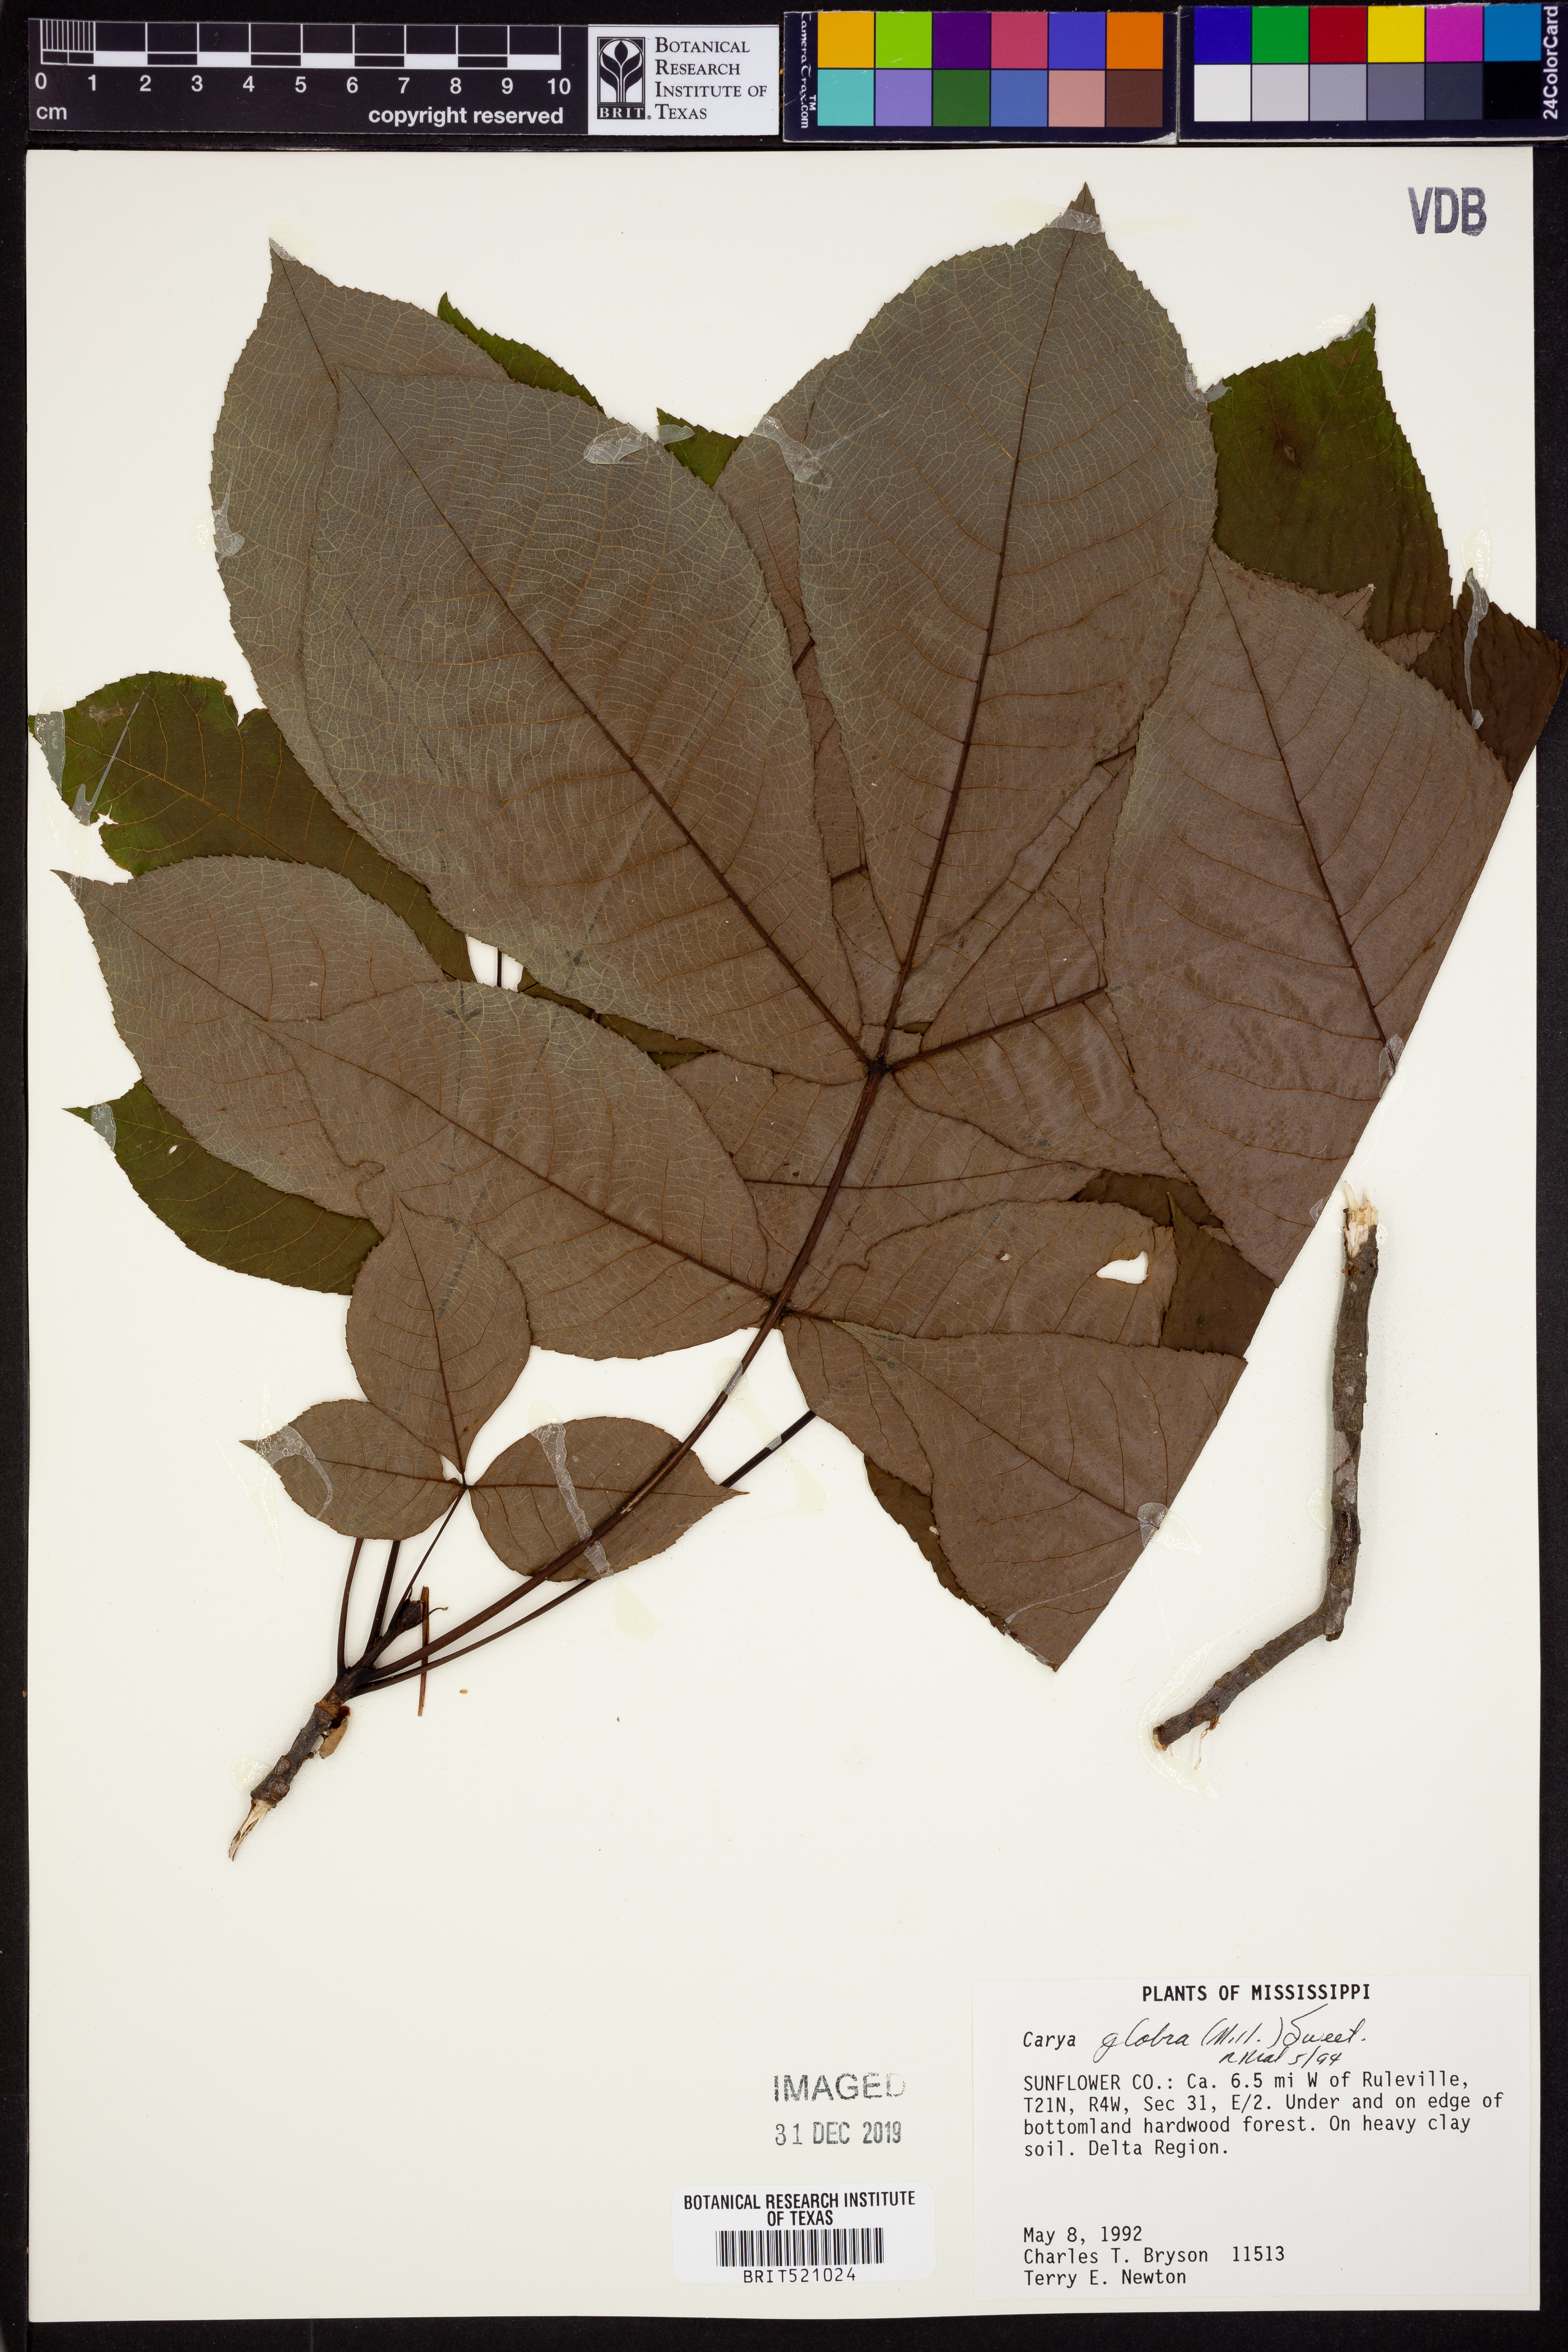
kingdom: Plantae
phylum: Tracheophyta
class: Magnoliopsida
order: Fagales
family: Juglandaceae
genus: Carya
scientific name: Carya glabra
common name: Pignut hickory
